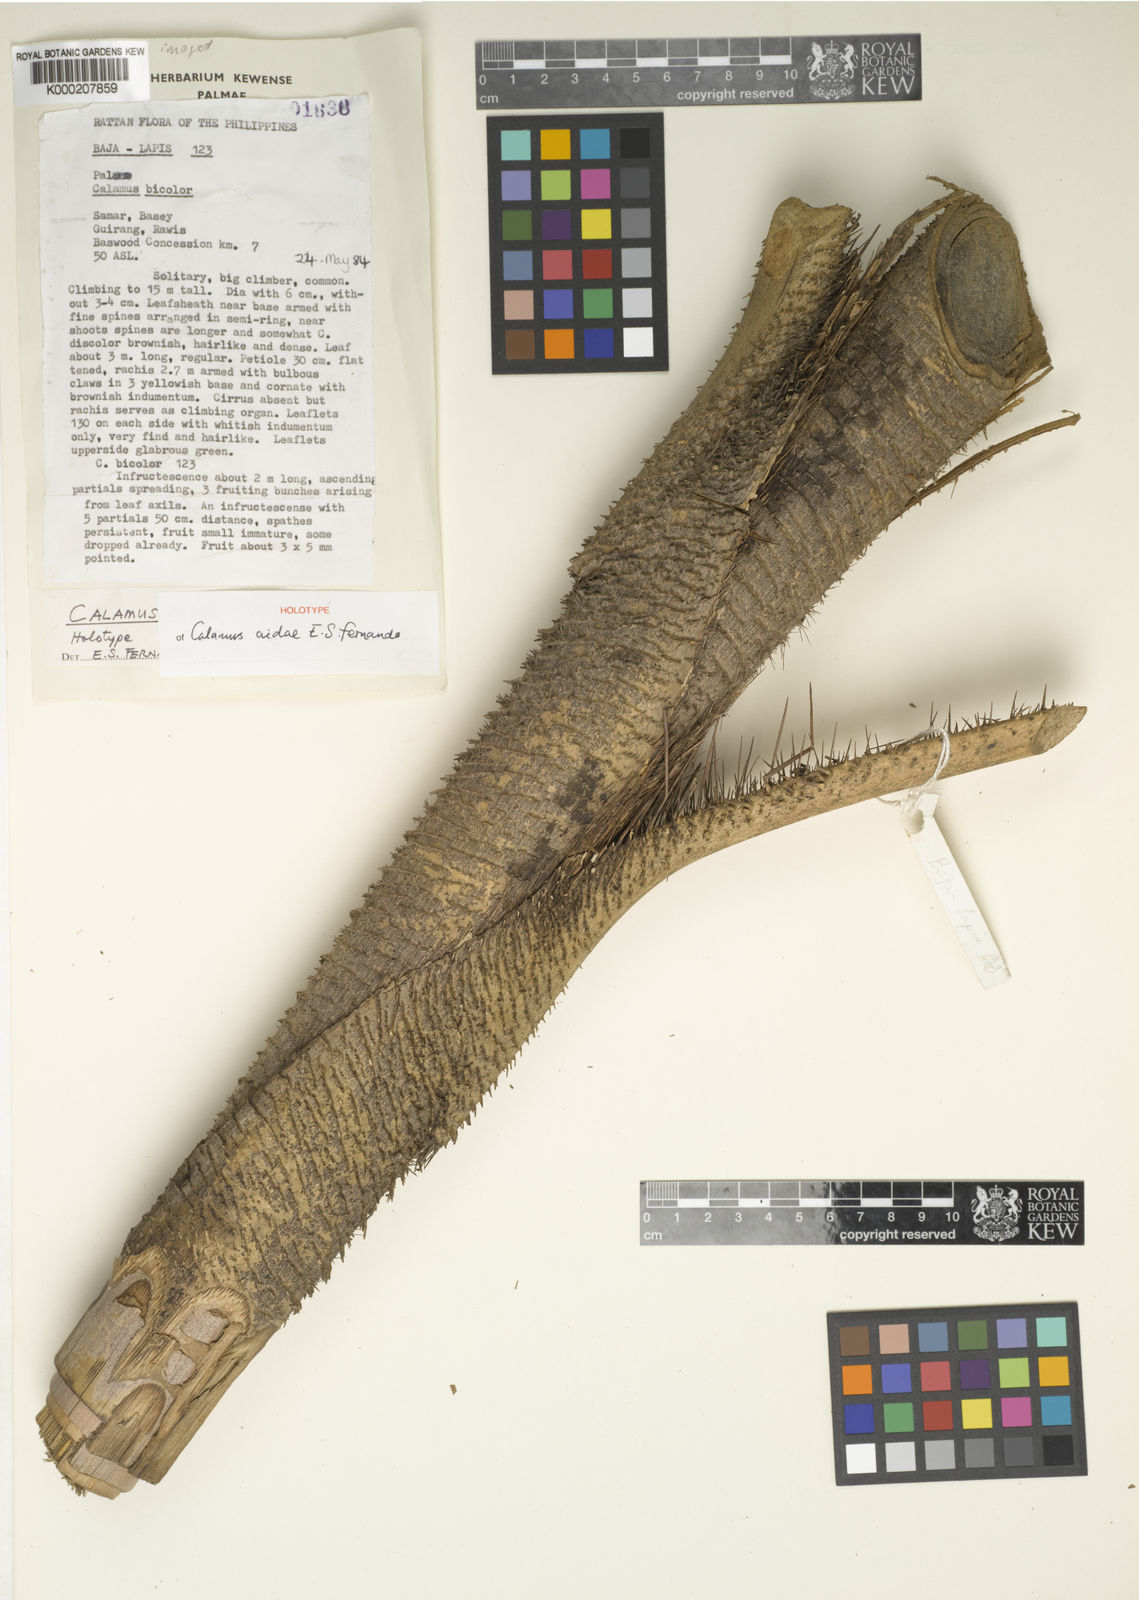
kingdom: Plantae
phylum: Tracheophyta
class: Liliopsida
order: Arecales
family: Arecaceae
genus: Calamus
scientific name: Calamus aidae
